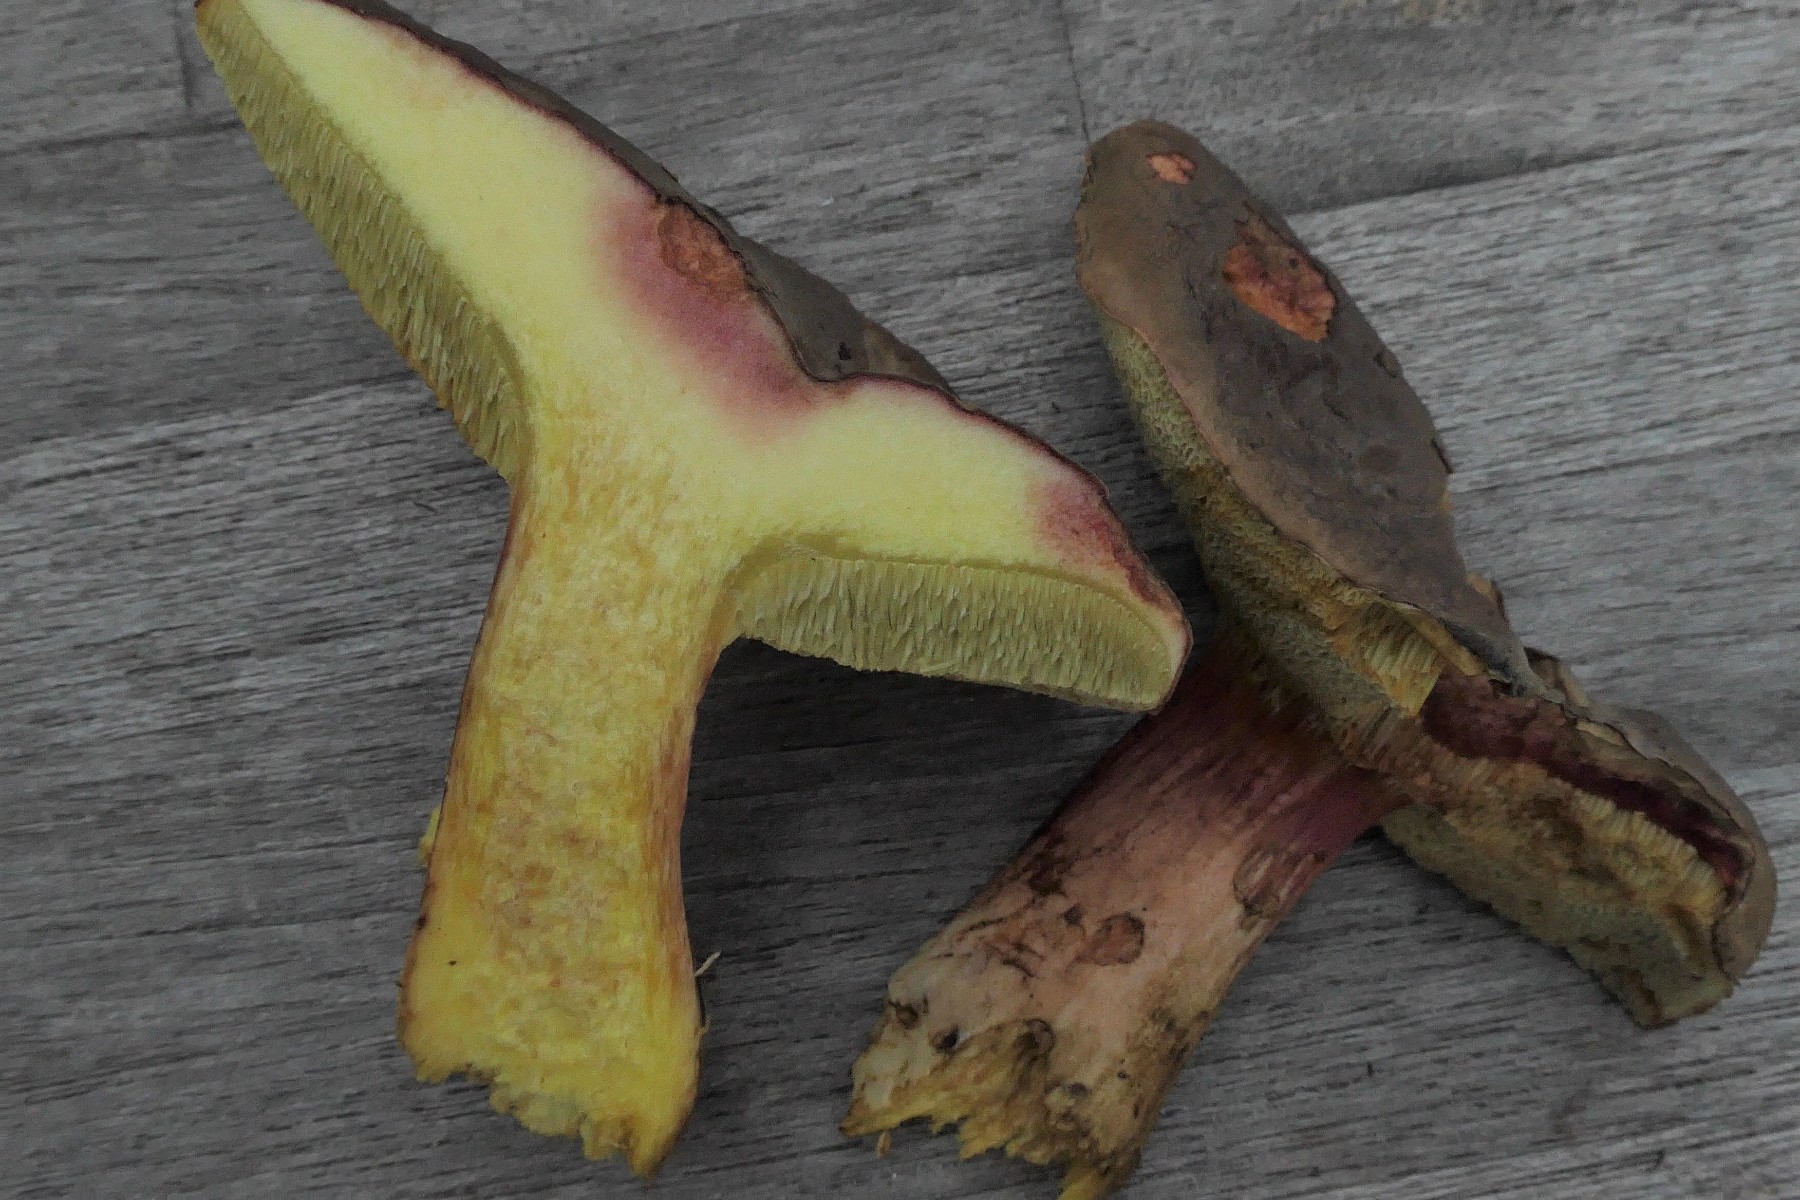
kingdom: Fungi
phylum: Basidiomycota
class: Agaricomycetes
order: Boletales
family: Boletaceae
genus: Xerocomellus
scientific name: Xerocomellus pruinatus
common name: dugget rørhat
